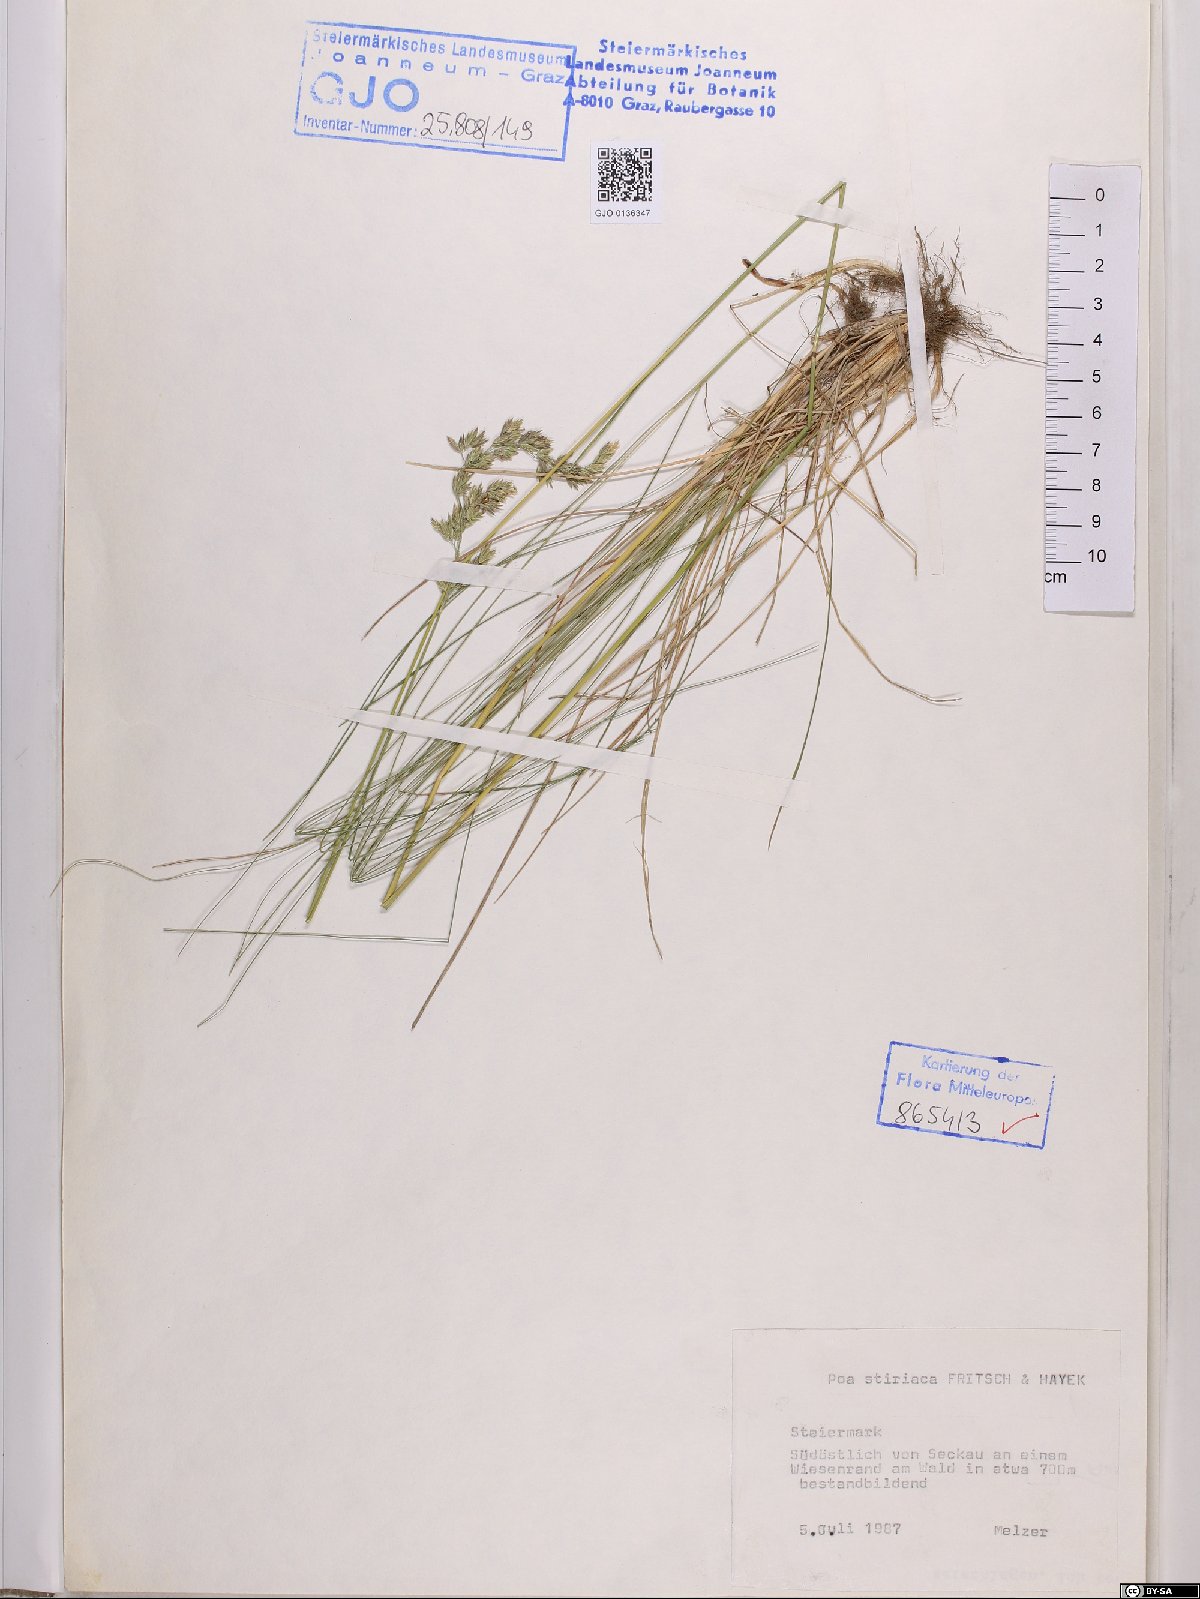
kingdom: Plantae
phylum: Tracheophyta
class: Liliopsida
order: Poales
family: Poaceae
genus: Poa
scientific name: Poa stiriaca
